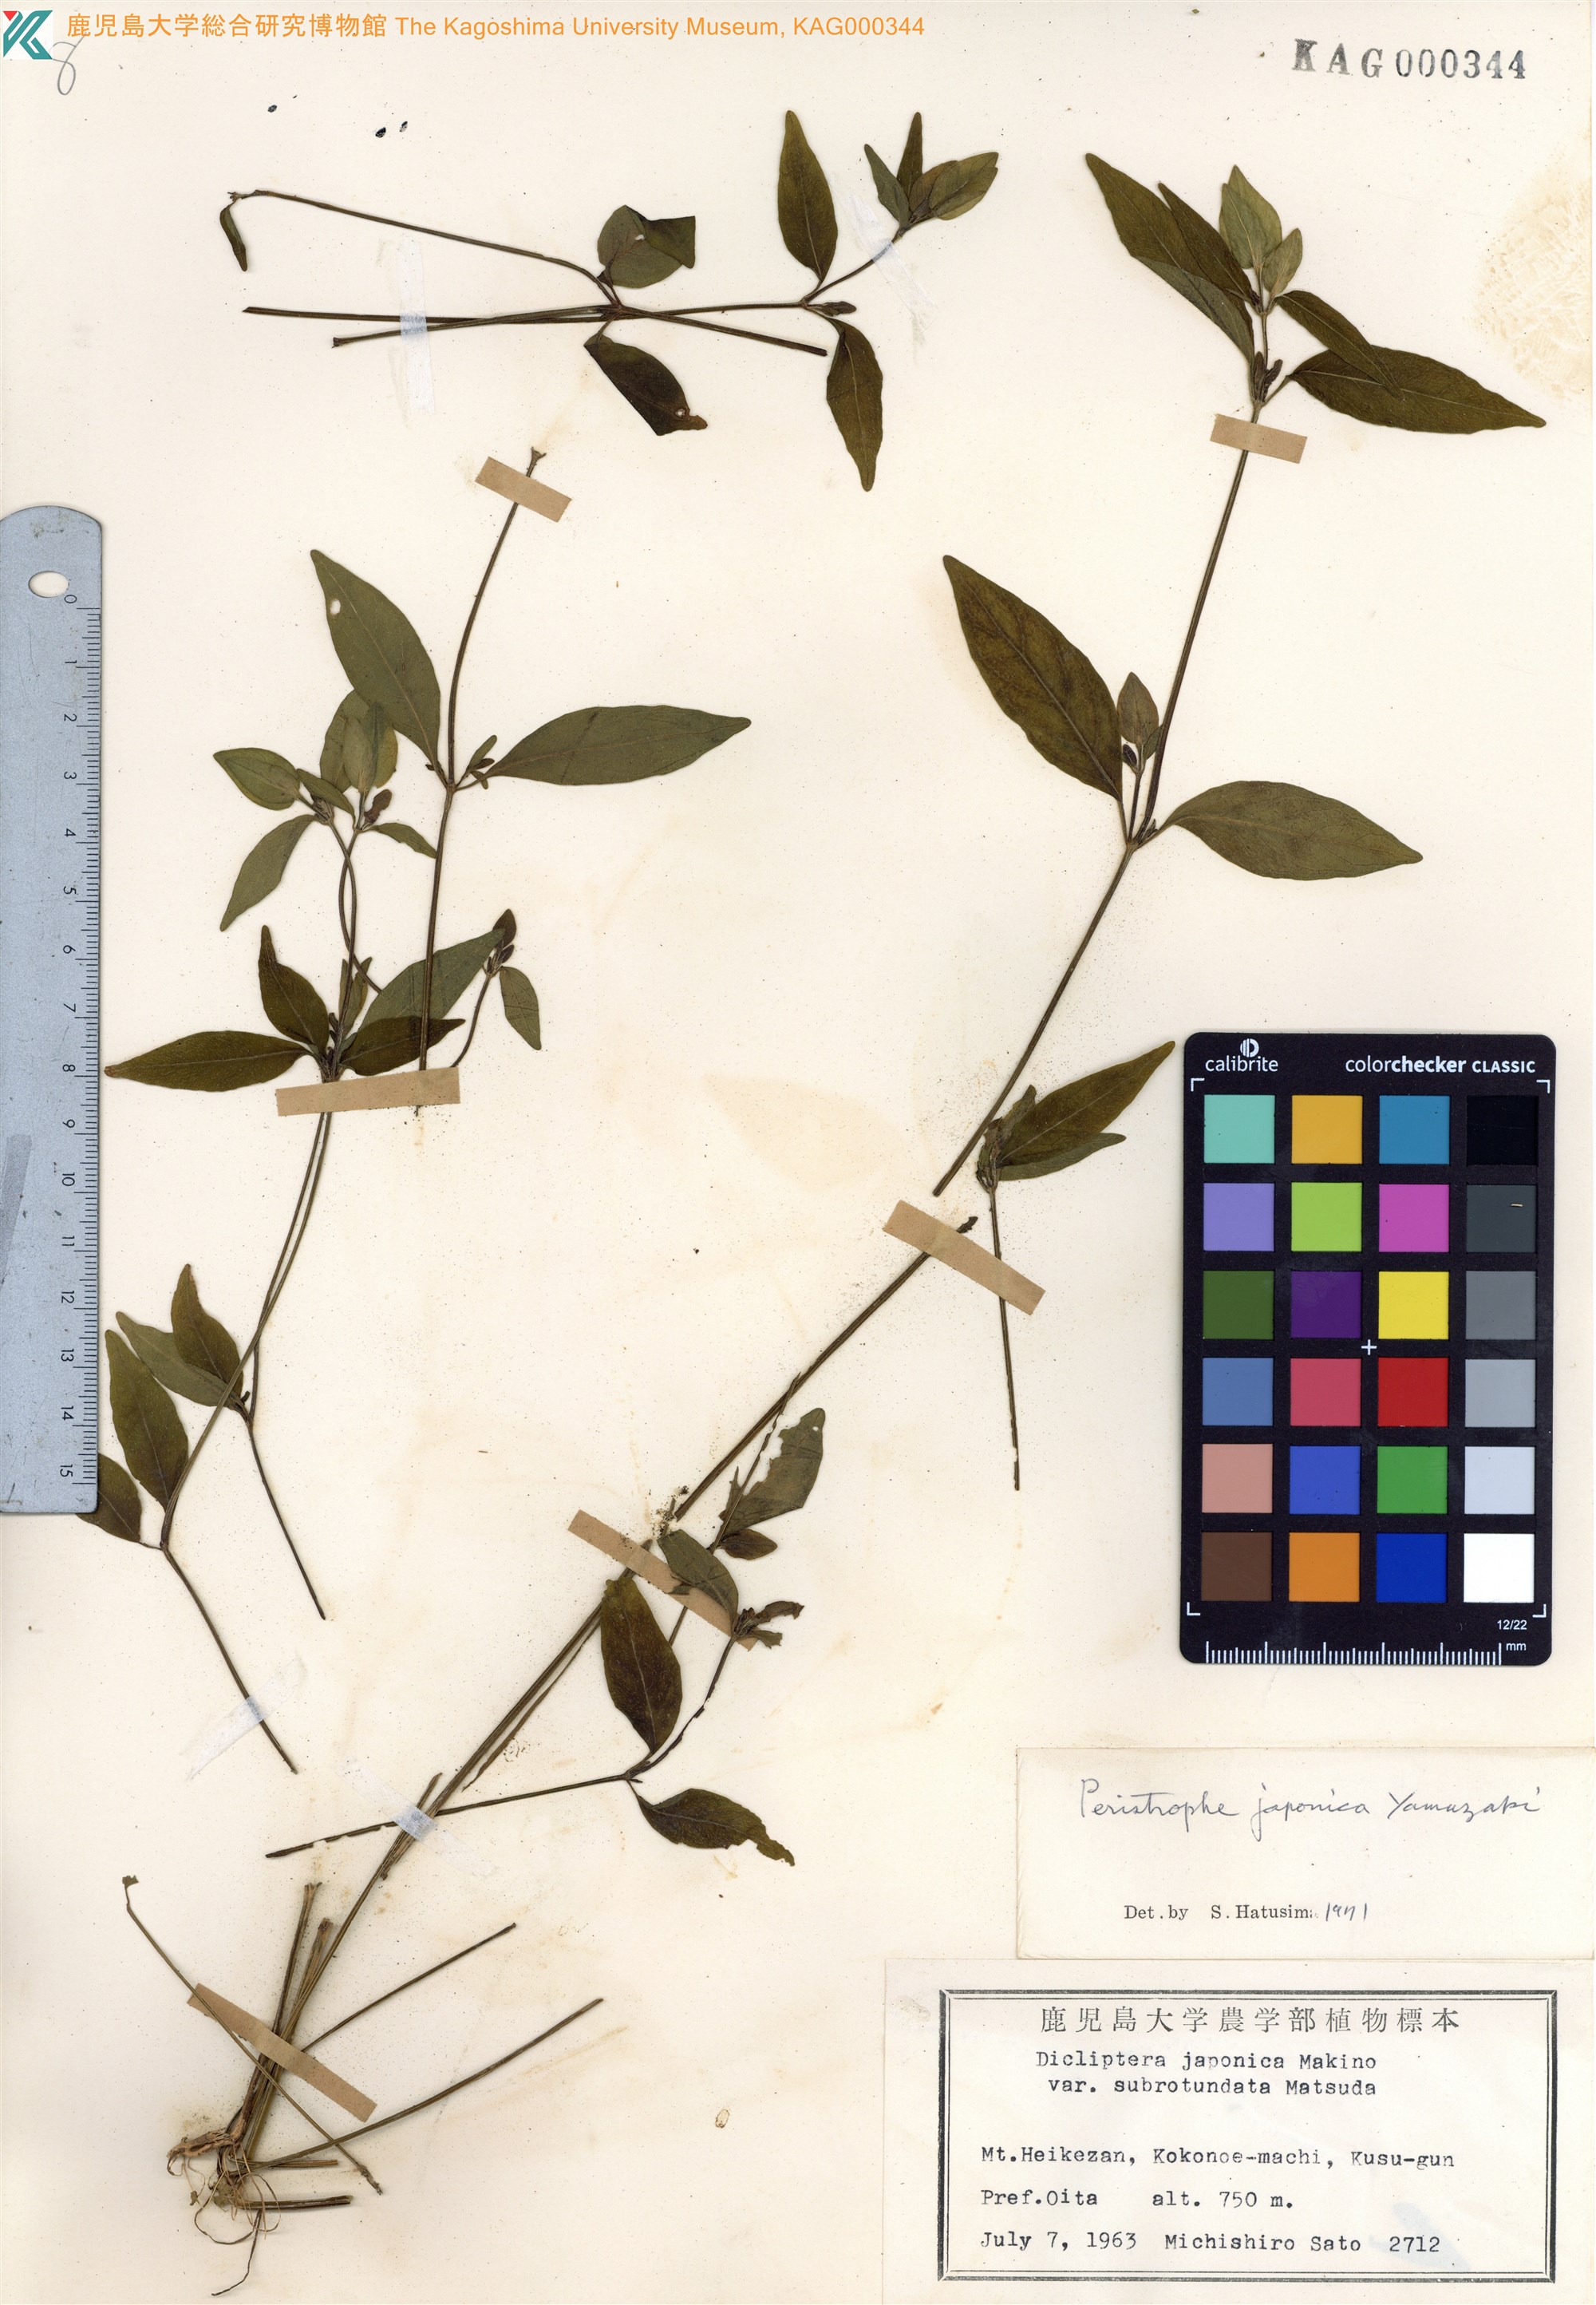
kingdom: Plantae
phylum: Tracheophyta
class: Magnoliopsida
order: Lamiales
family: Acanthaceae
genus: Dicliptera
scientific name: Dicliptera japonica
